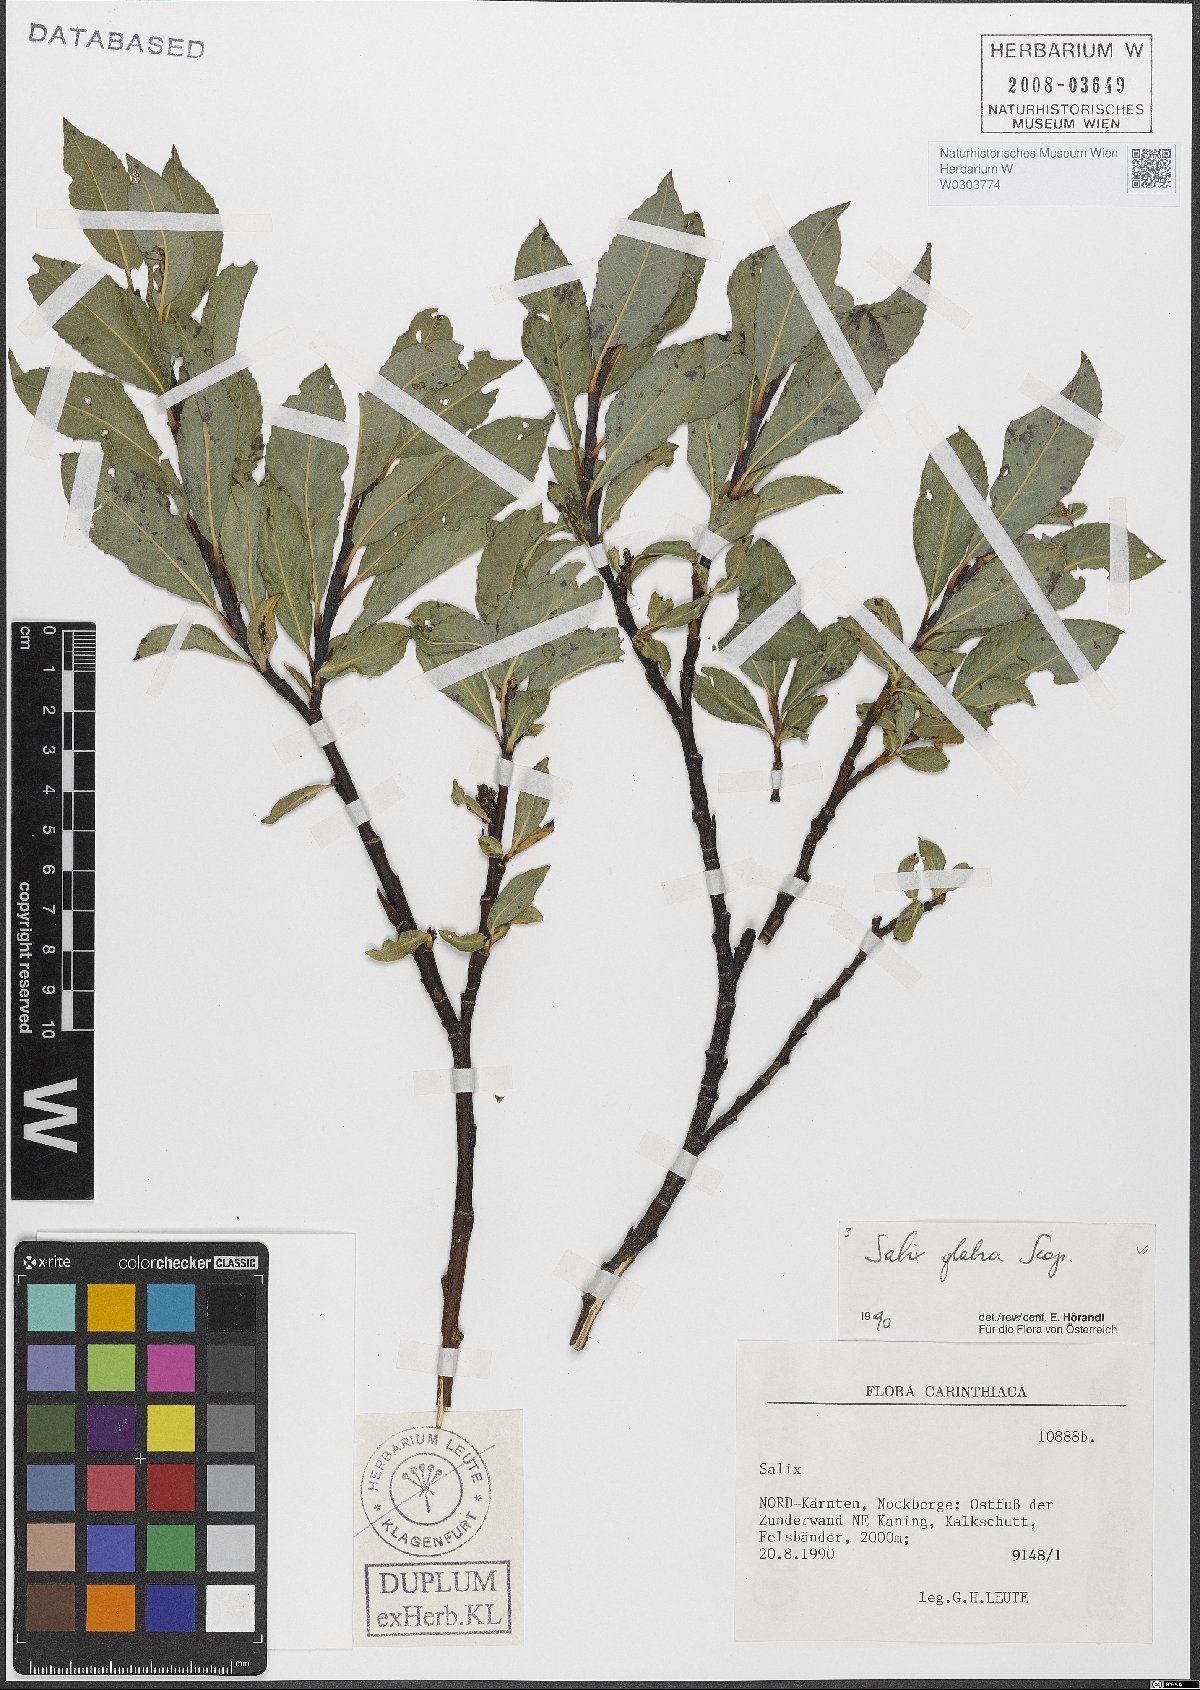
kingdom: Plantae
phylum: Tracheophyta
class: Magnoliopsida
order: Malpighiales
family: Salicaceae
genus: Salix
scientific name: Salix glabra
